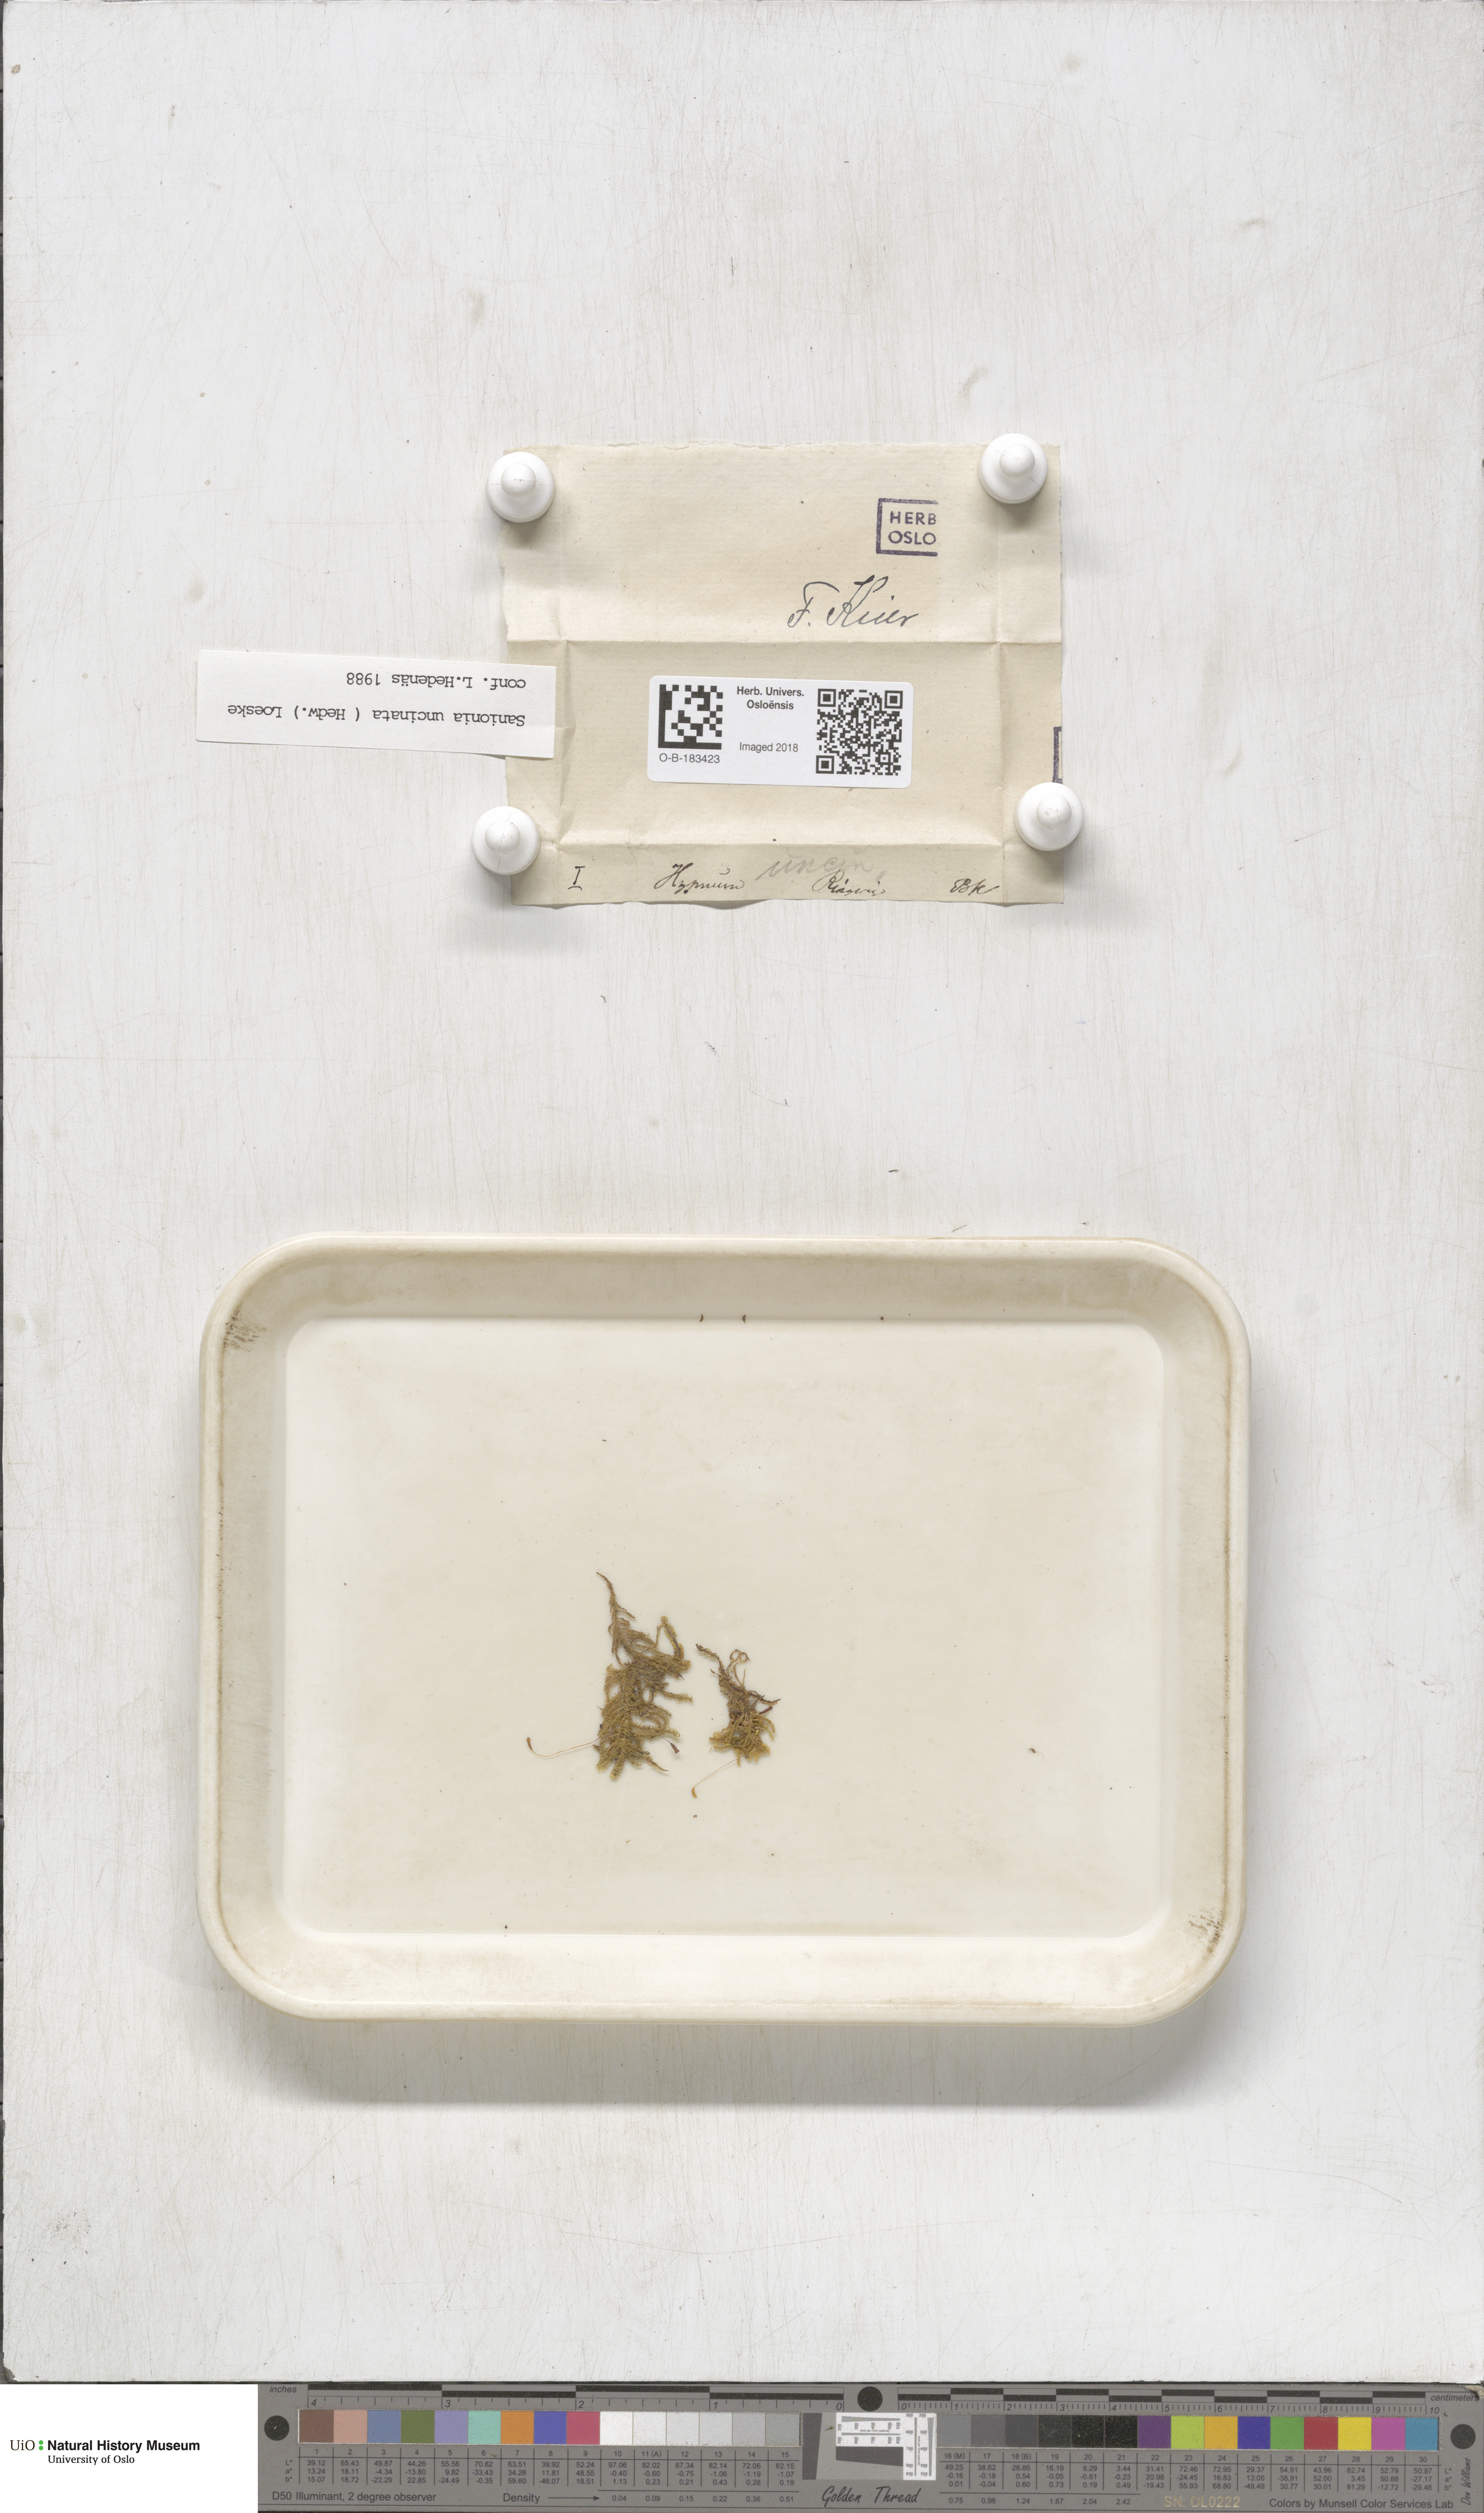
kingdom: Plantae
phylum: Bryophyta
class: Bryopsida
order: Hypnales
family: Scorpidiaceae
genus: Sanionia
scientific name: Sanionia uncinata
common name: Sickle moss
